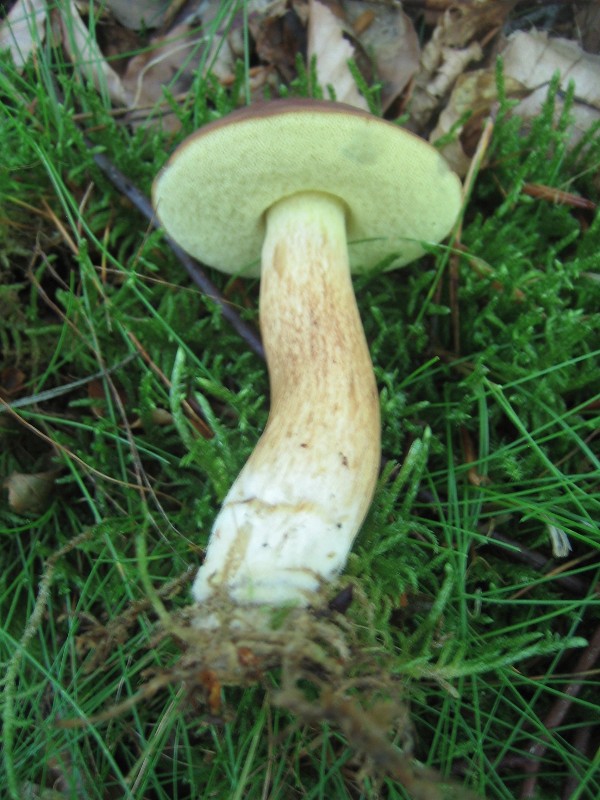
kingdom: Fungi
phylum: Basidiomycota
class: Agaricomycetes
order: Boletales
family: Boletaceae
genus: Imleria
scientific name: Imleria badia
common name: brunstokket rørhat
